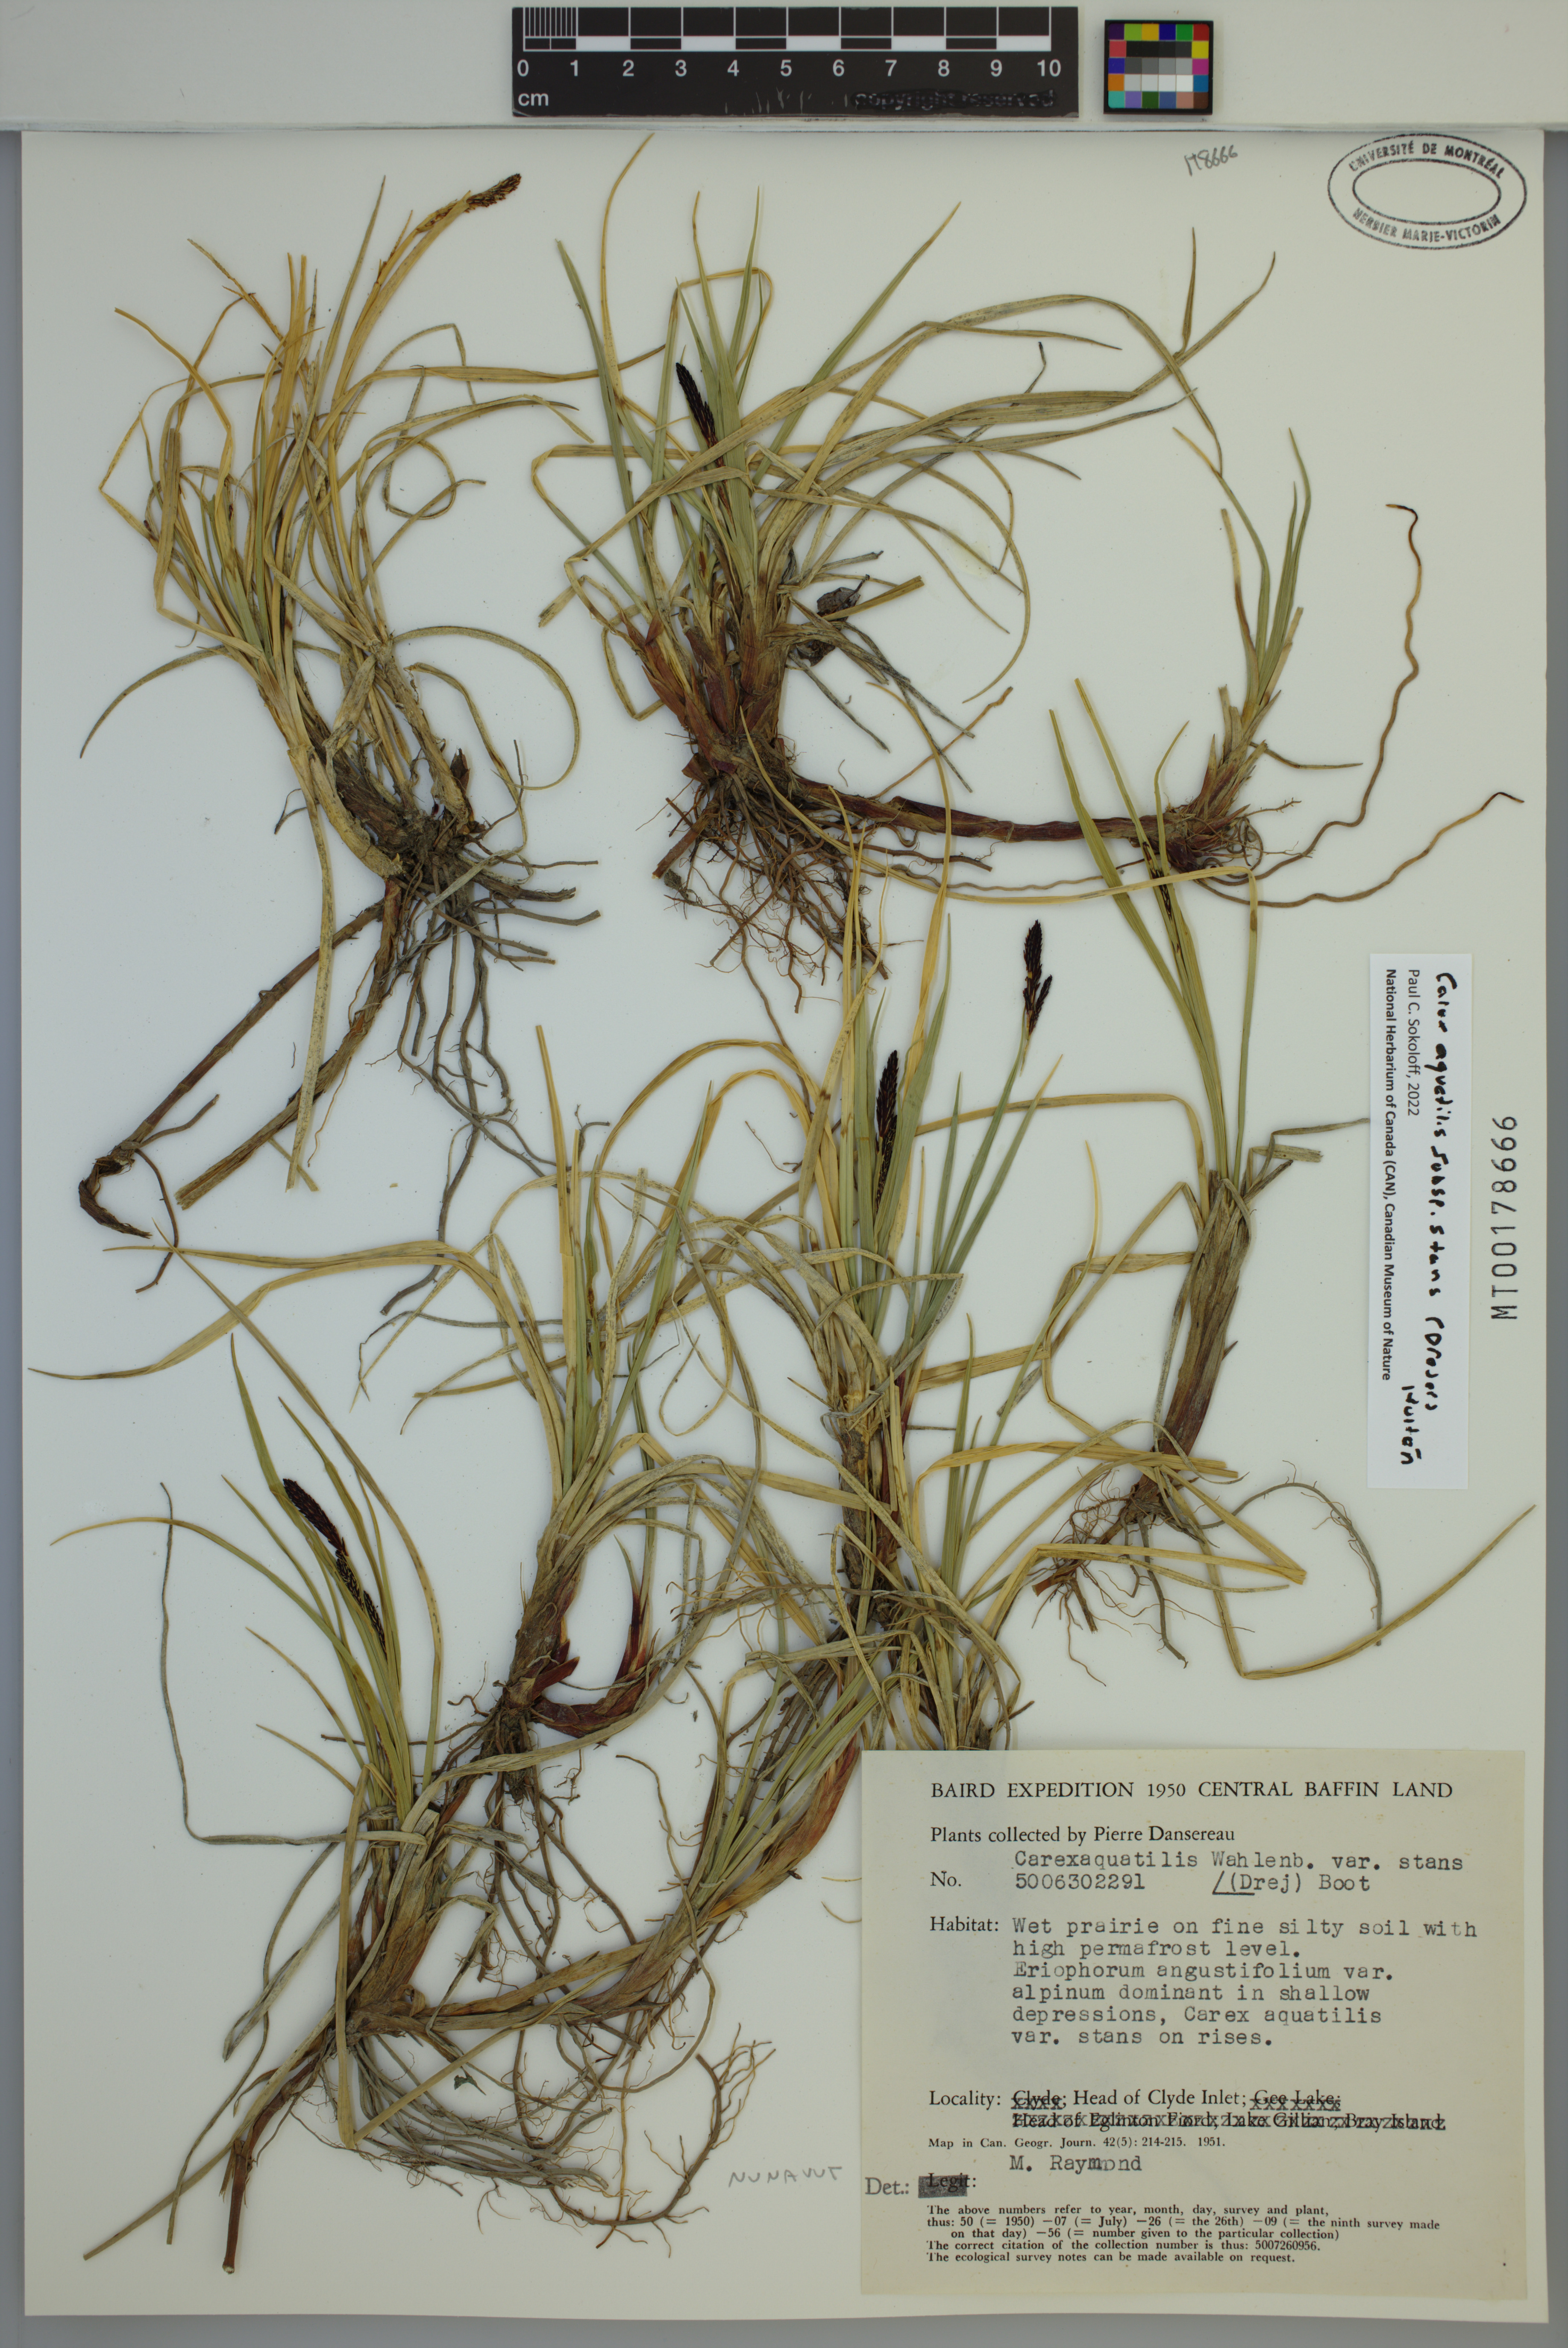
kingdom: Plantae
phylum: Tracheophyta
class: Liliopsida
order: Poales
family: Cyperaceae
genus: Carex
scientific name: Carex aquatilis
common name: Water sedge
